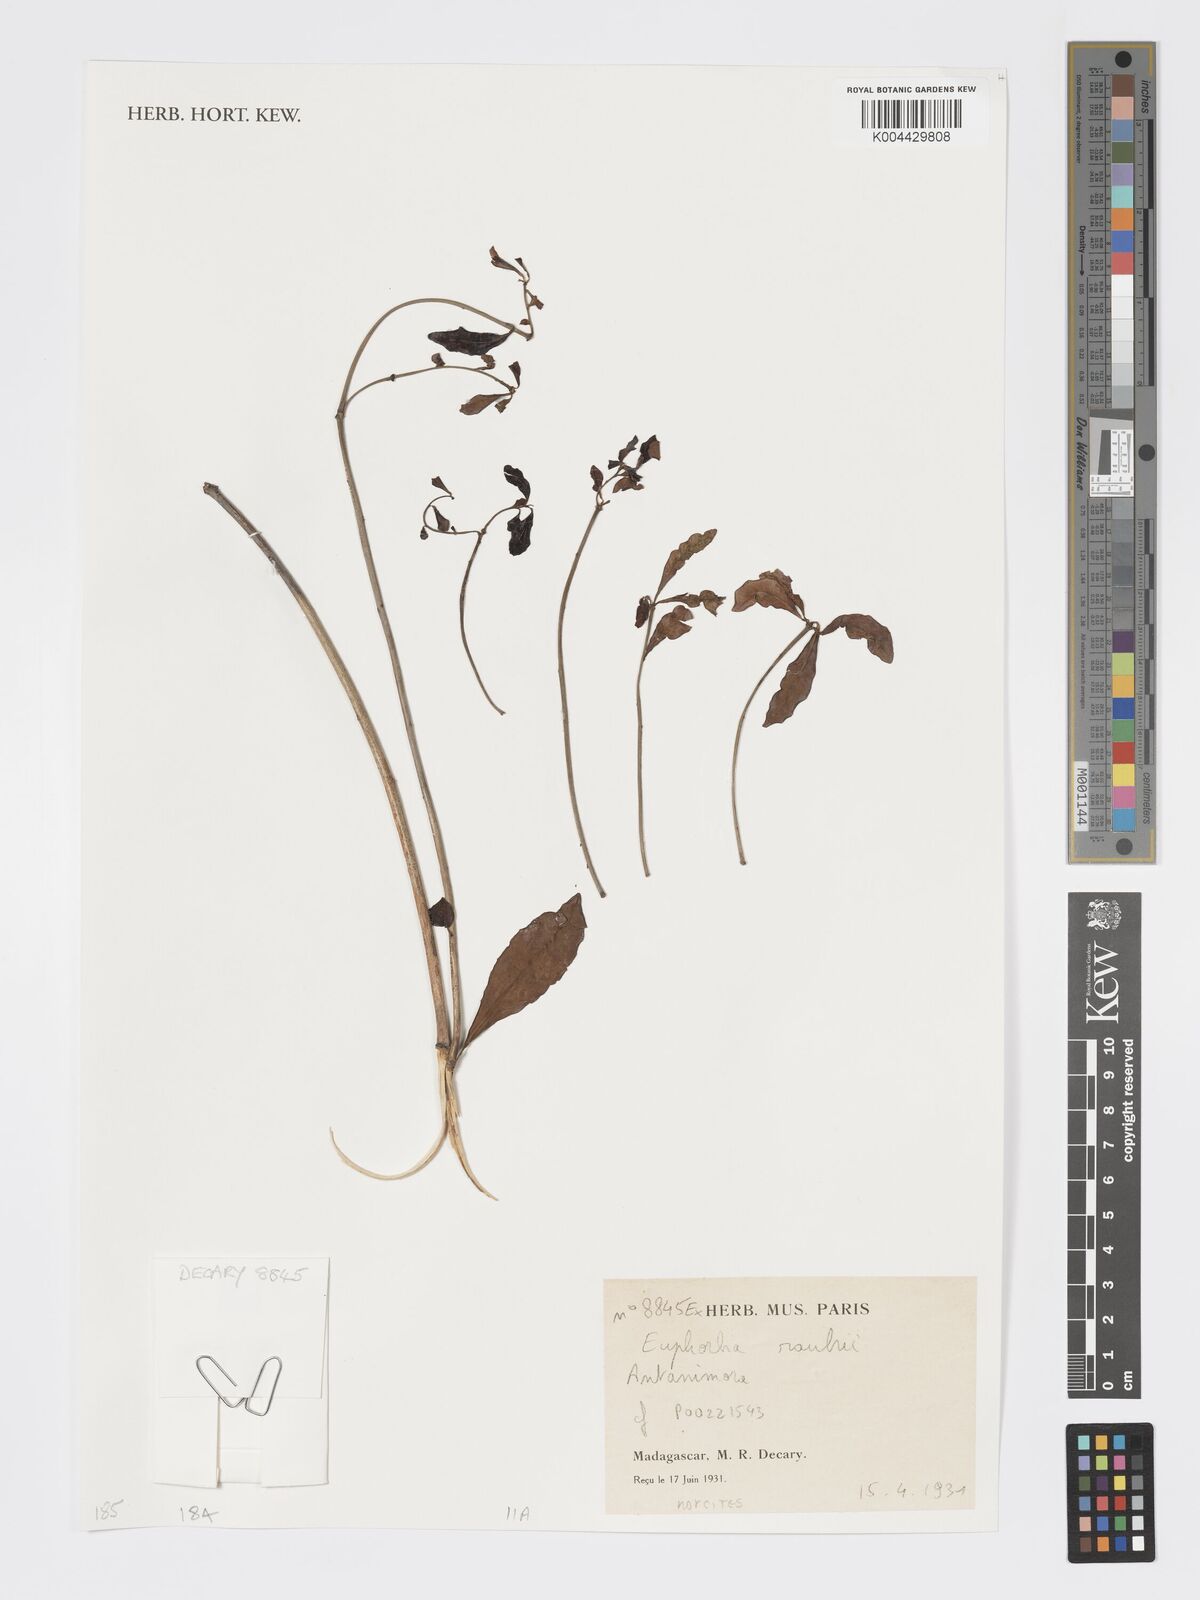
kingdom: Plantae
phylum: Tracheophyta
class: Magnoliopsida
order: Malpighiales
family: Euphorbiaceae
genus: Euphorbia
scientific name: Euphorbia rauhii
